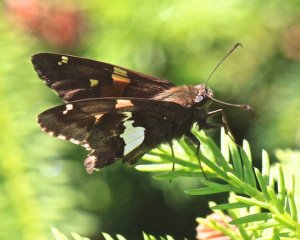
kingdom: Animalia
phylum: Arthropoda
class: Insecta
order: Lepidoptera
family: Hesperiidae
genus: Epargyreus
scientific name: Epargyreus clarus
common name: Silver-spotted Skipper
